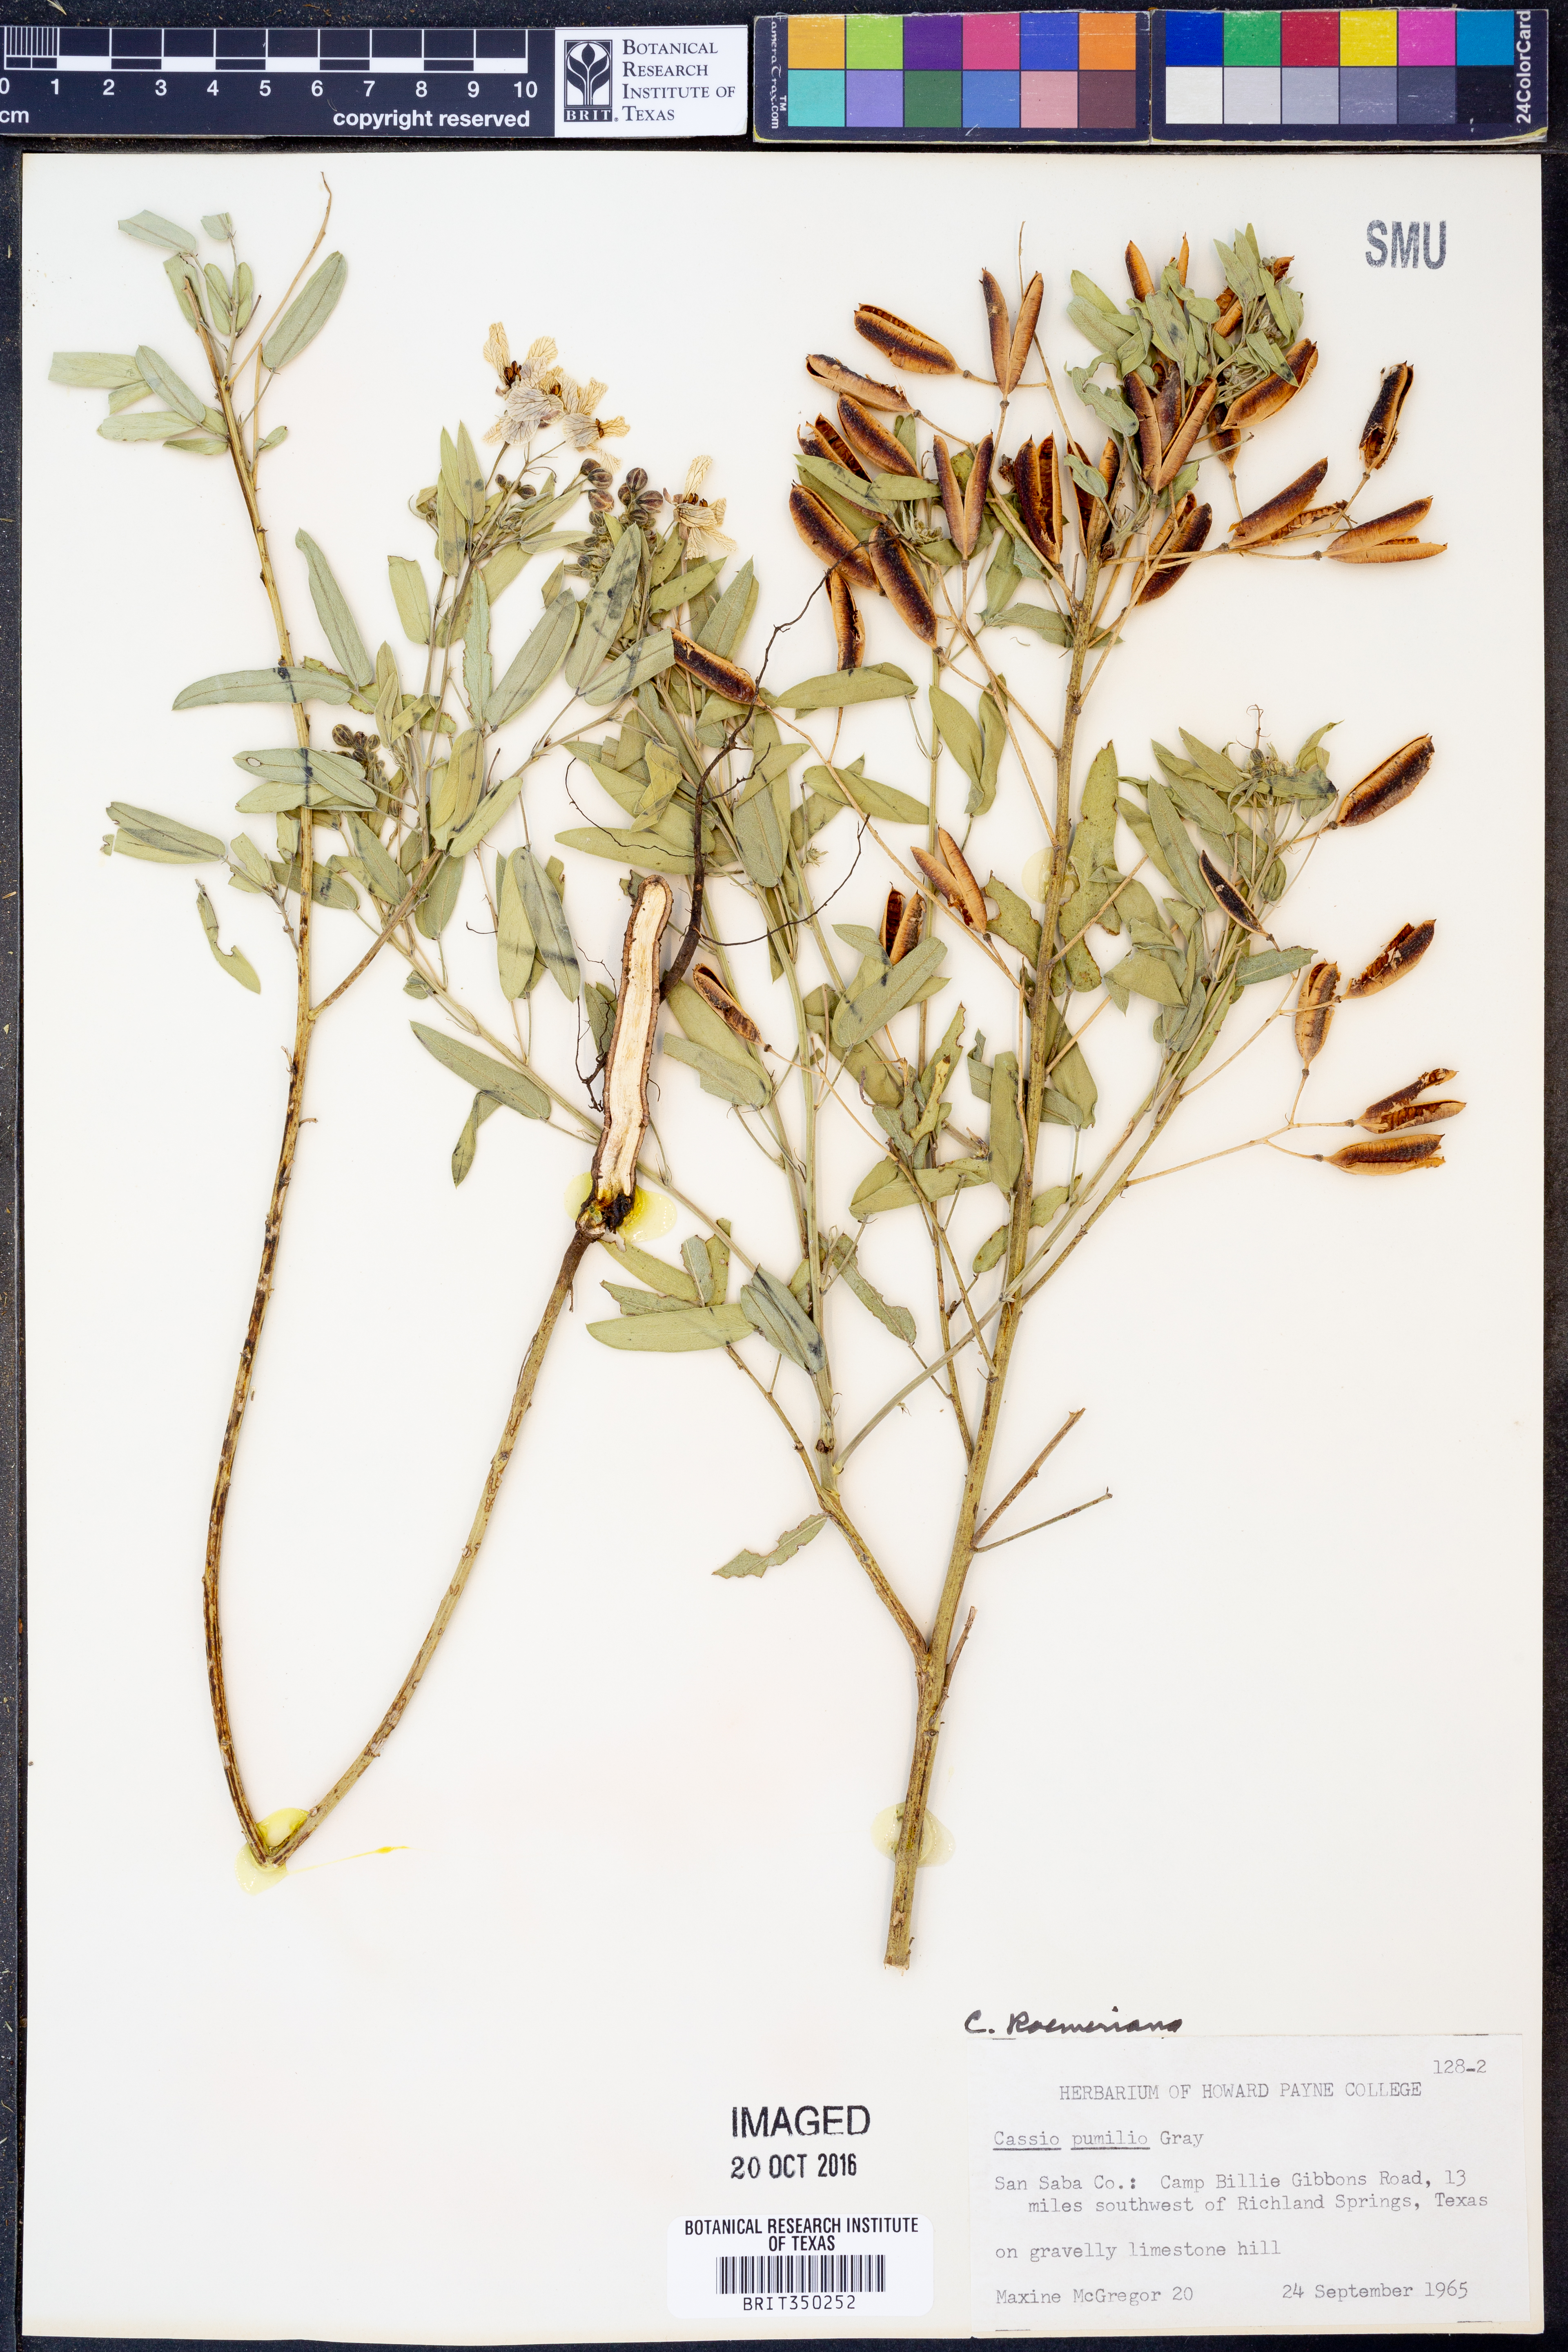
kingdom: Plantae
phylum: Tracheophyta
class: Magnoliopsida
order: Fabales
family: Fabaceae
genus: Senna
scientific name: Senna roemeriana
